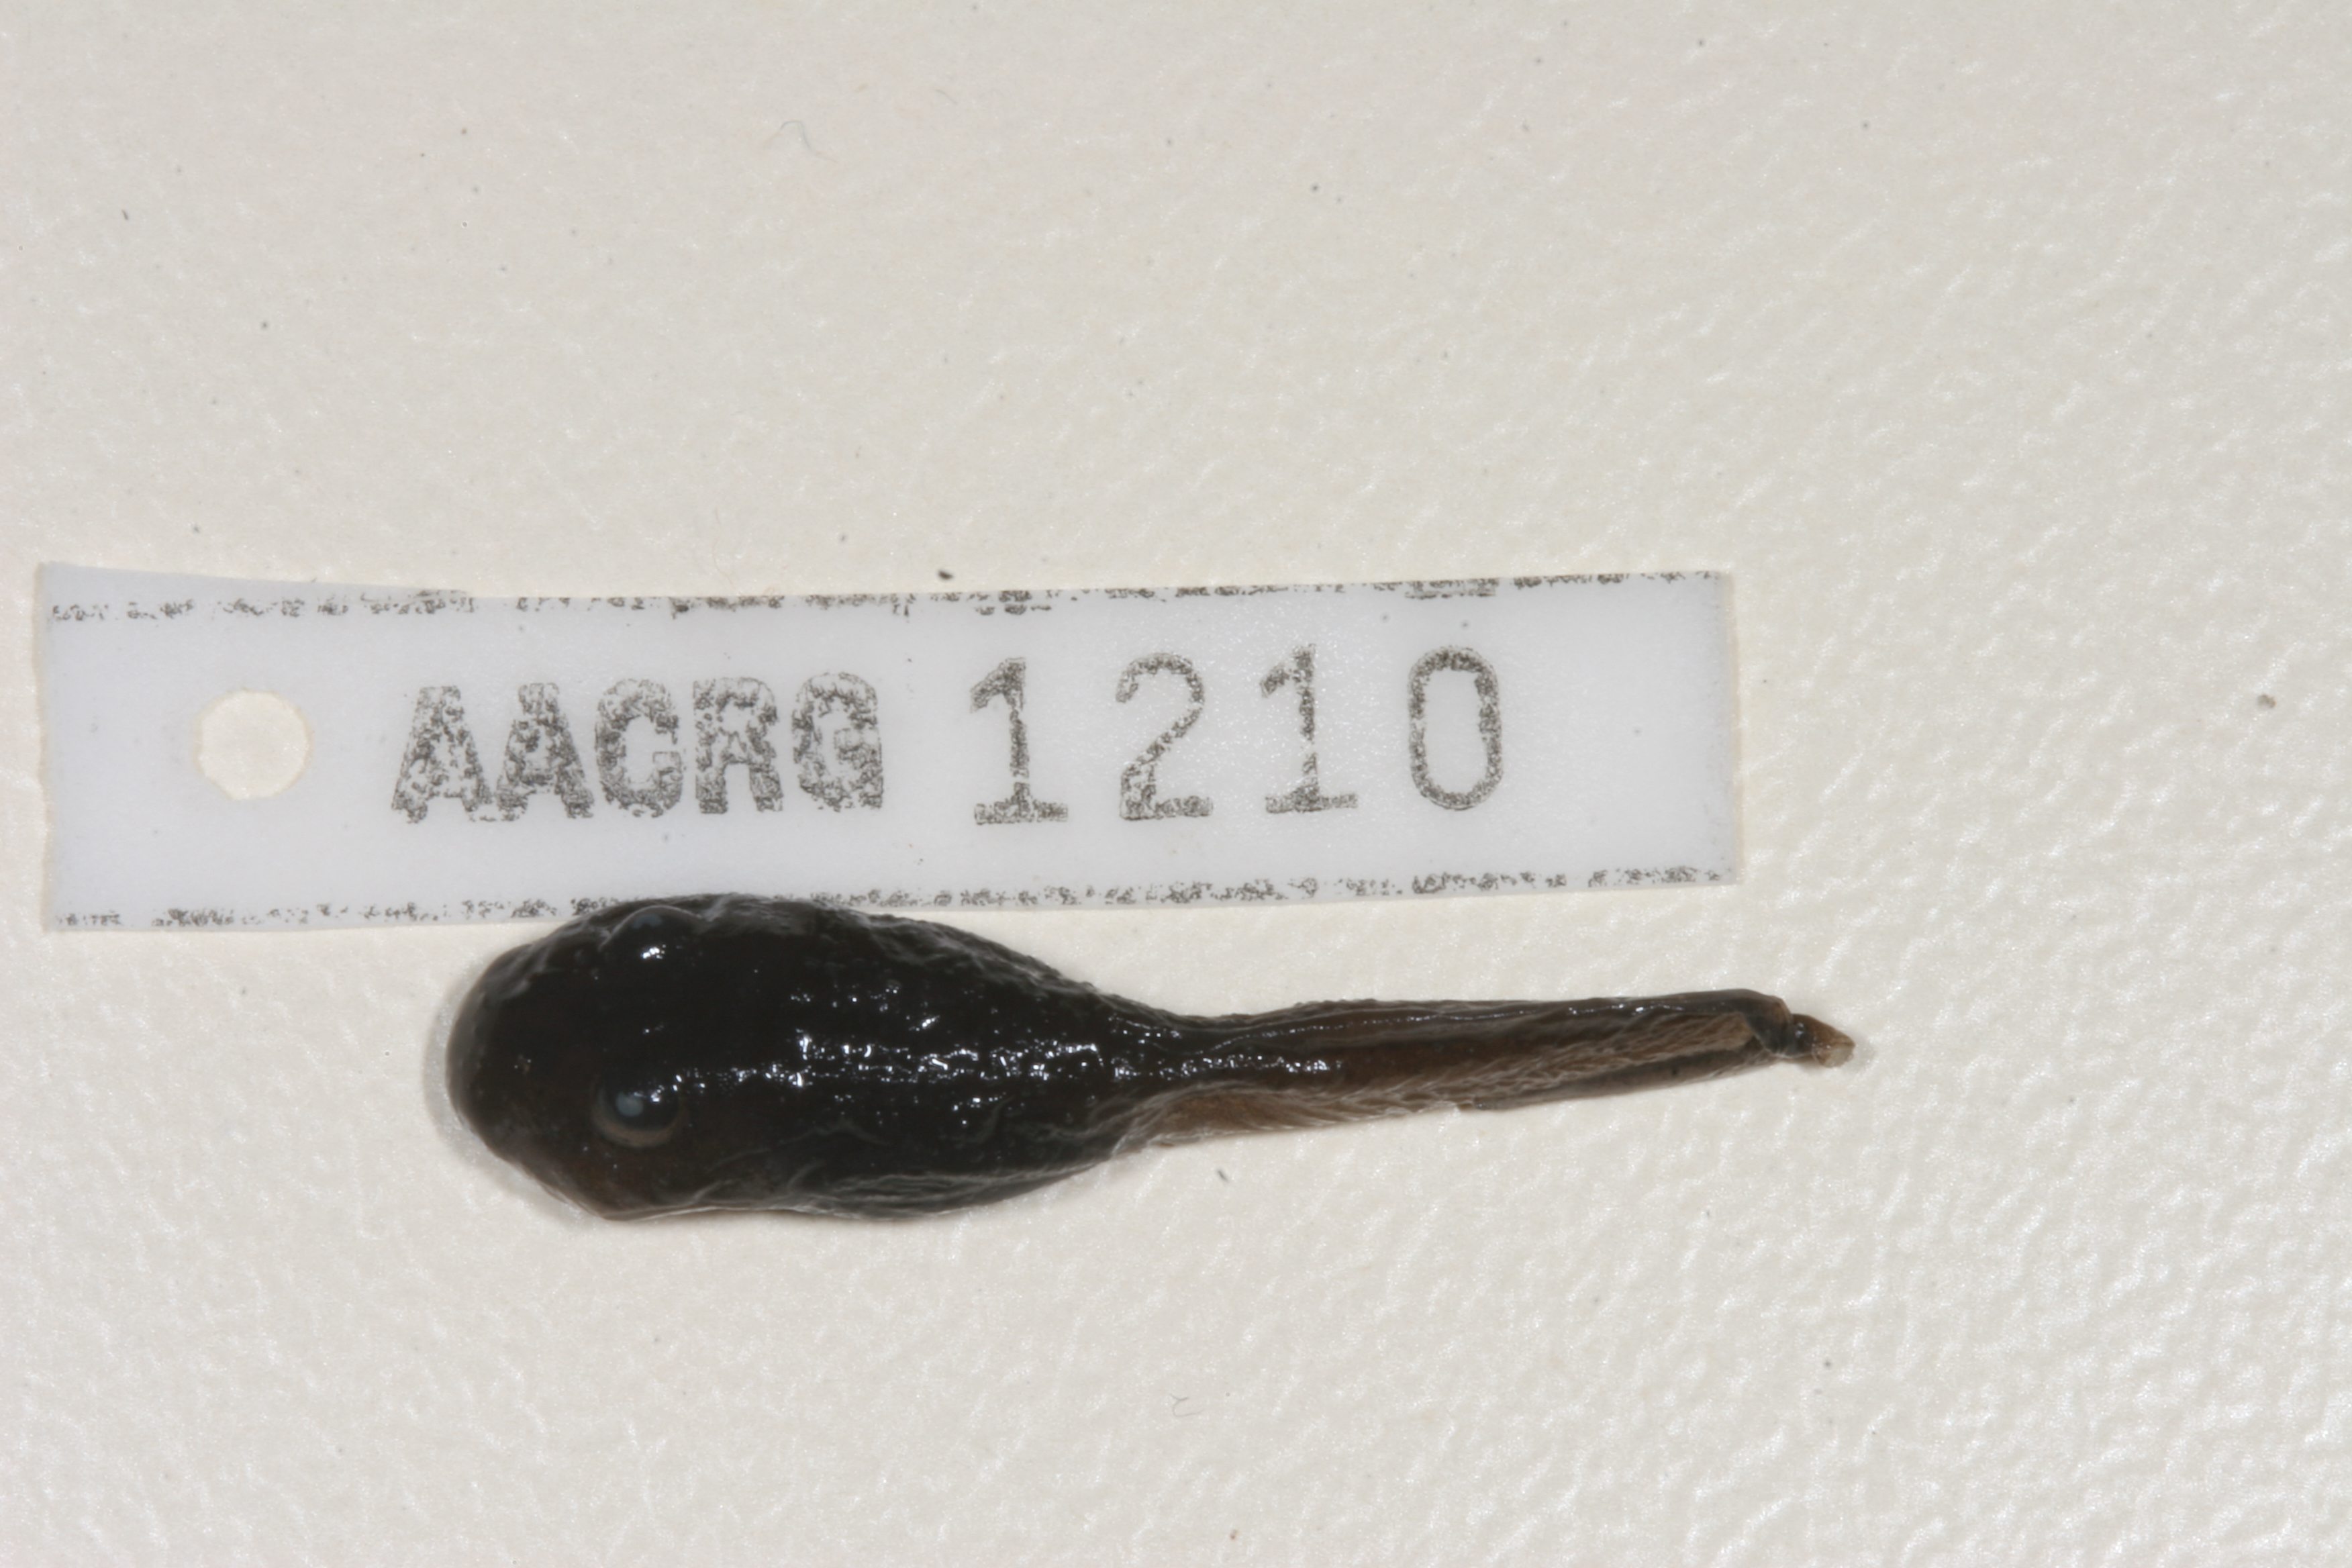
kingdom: Animalia
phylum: Chordata
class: Amphibia
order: Anura
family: Pyxicephalidae
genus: Amietia
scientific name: Amietia vertebralis
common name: Drakensberg stream frog
